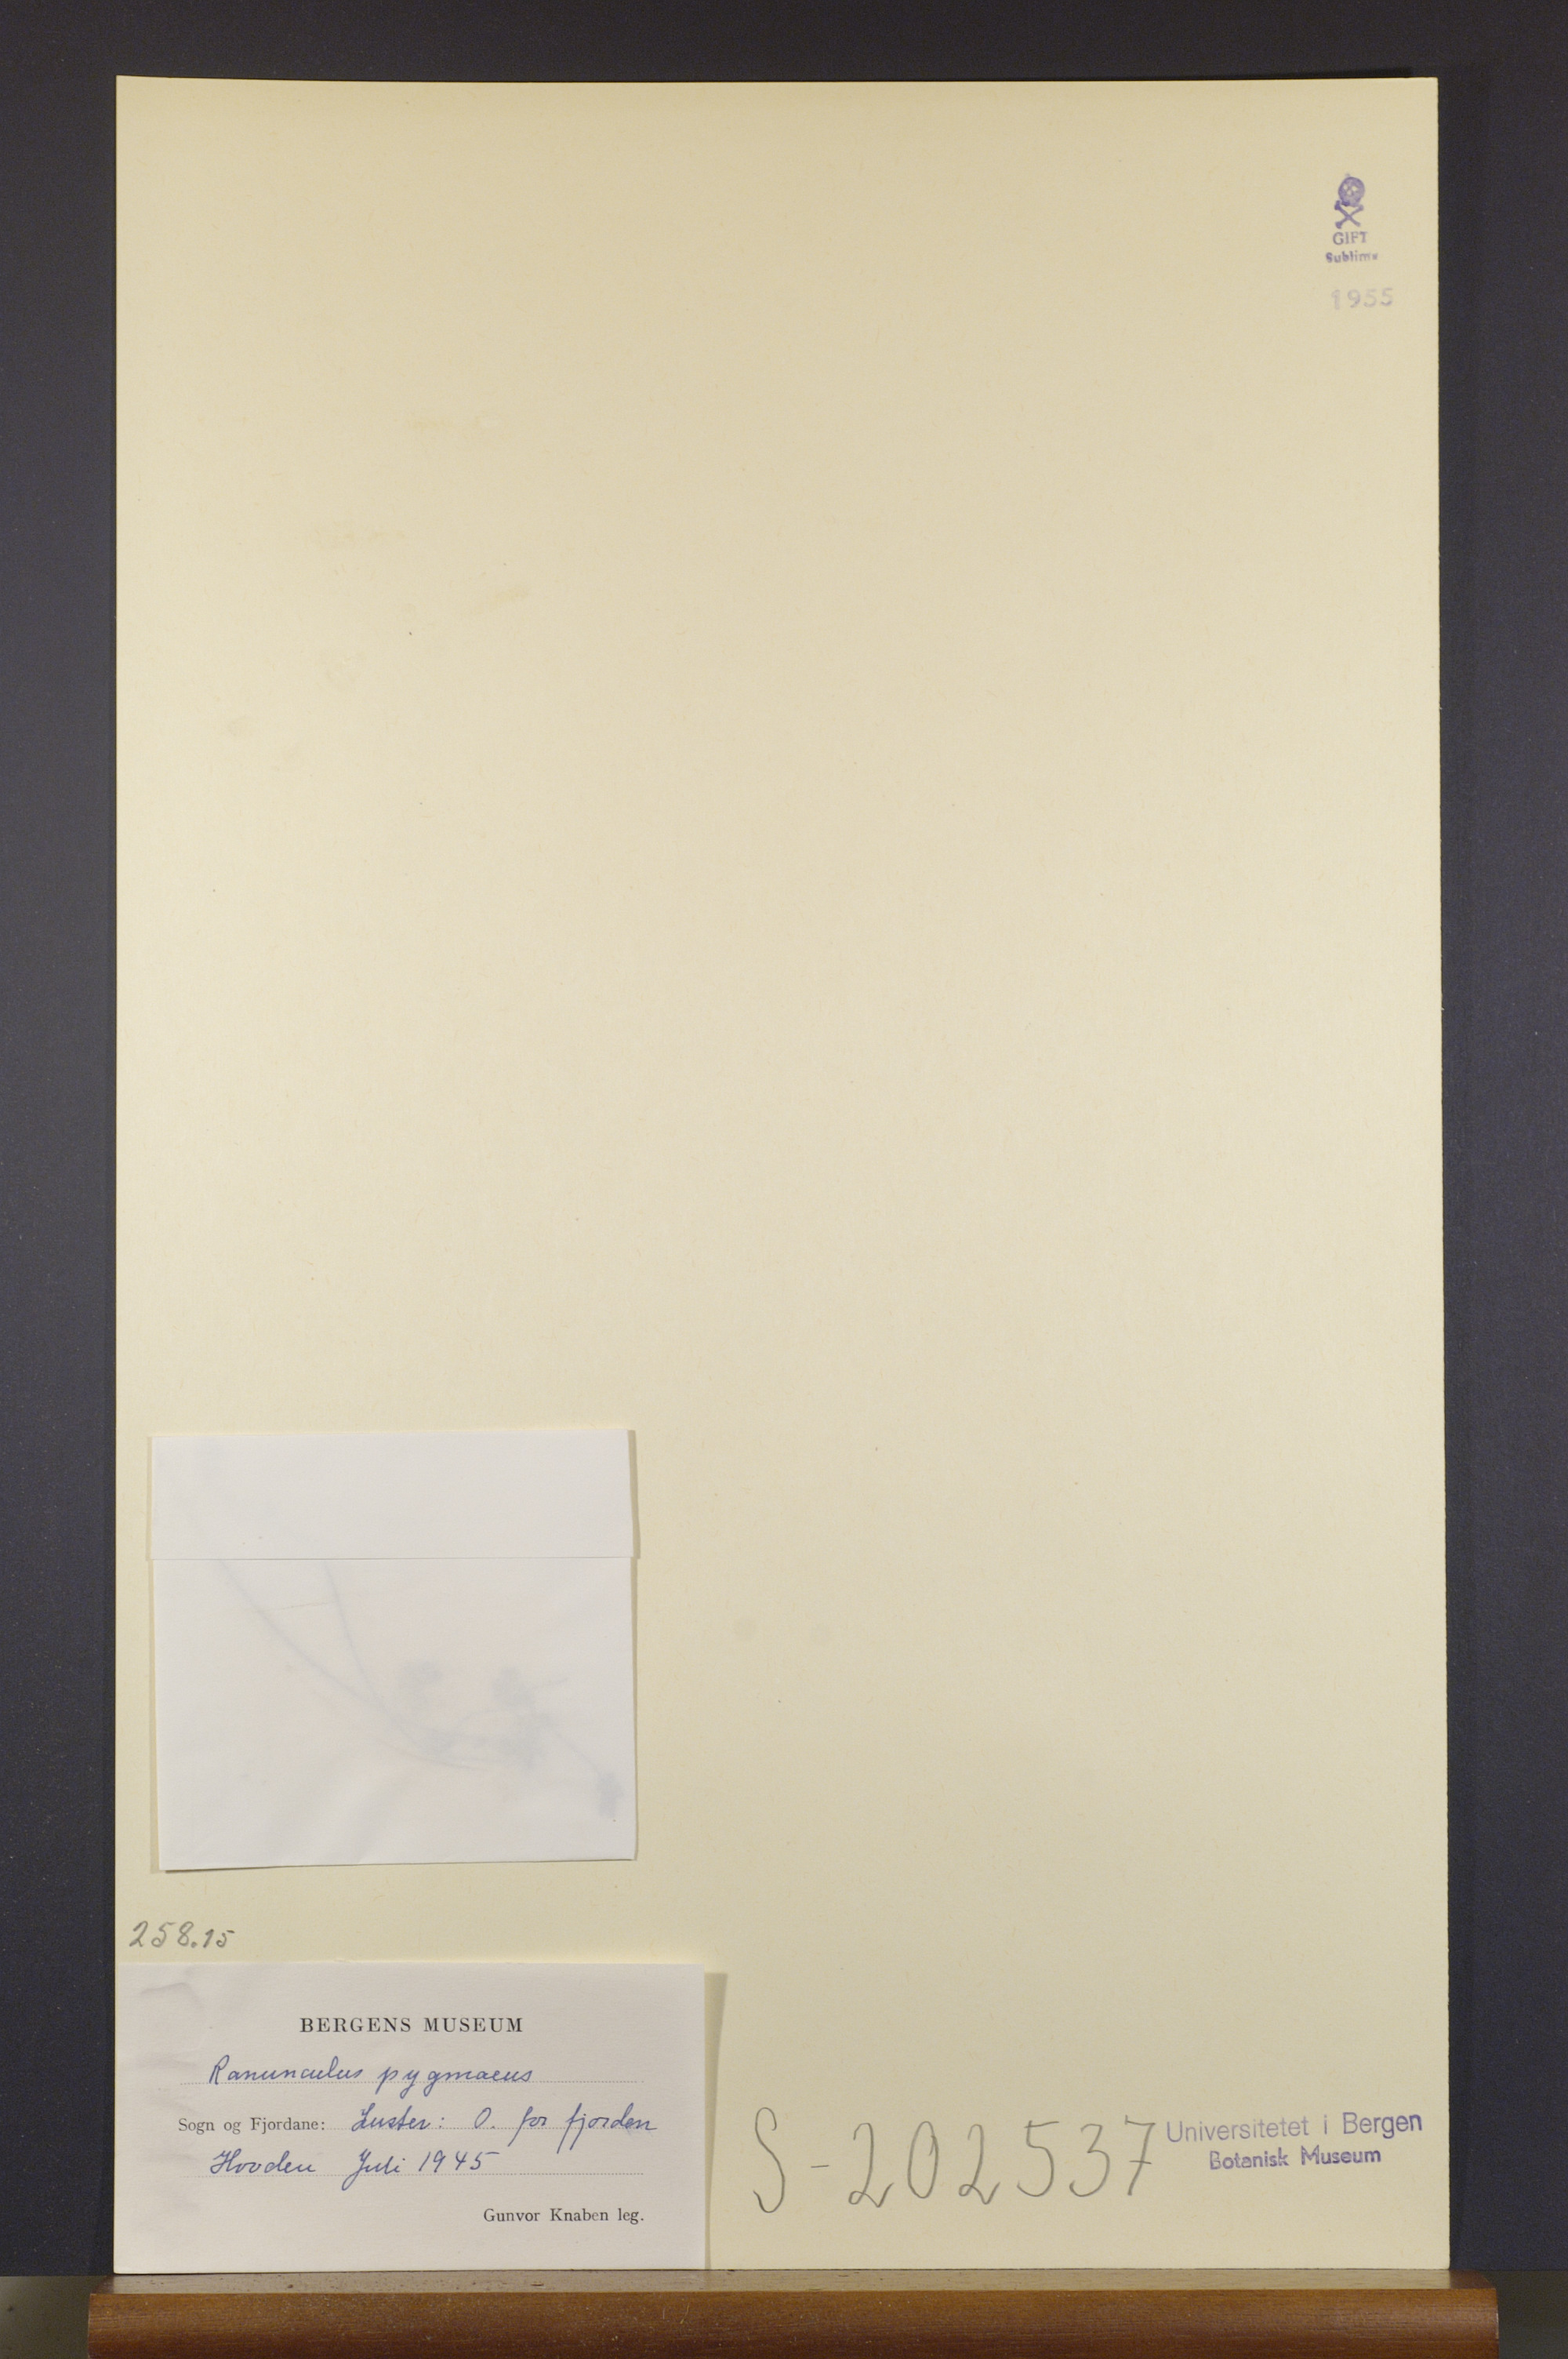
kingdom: Plantae
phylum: Tracheophyta
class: Magnoliopsida
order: Ranunculales
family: Ranunculaceae
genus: Ranunculus
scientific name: Ranunculus pygmaeus
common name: Dwarf buttercup
